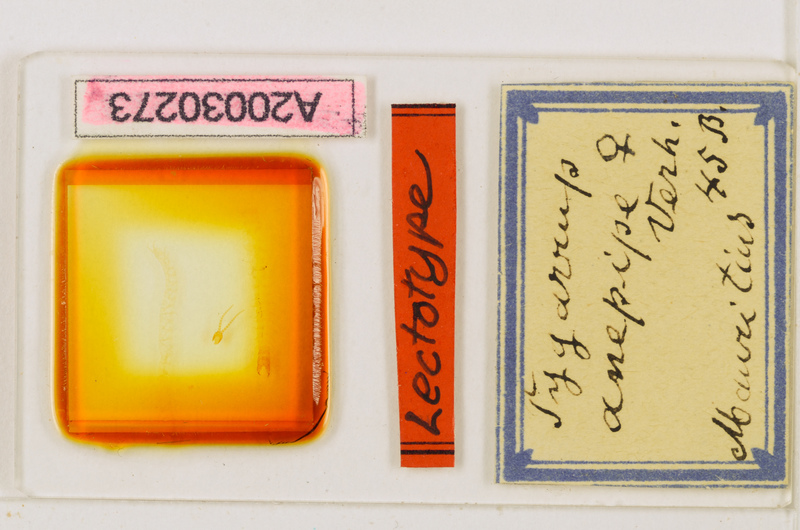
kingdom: Animalia
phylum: Arthropoda
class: Chilopoda
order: Geophilomorpha
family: Mecistocephalidae
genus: Tygarrup
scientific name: Tygarrup javanicus
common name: Centipede
